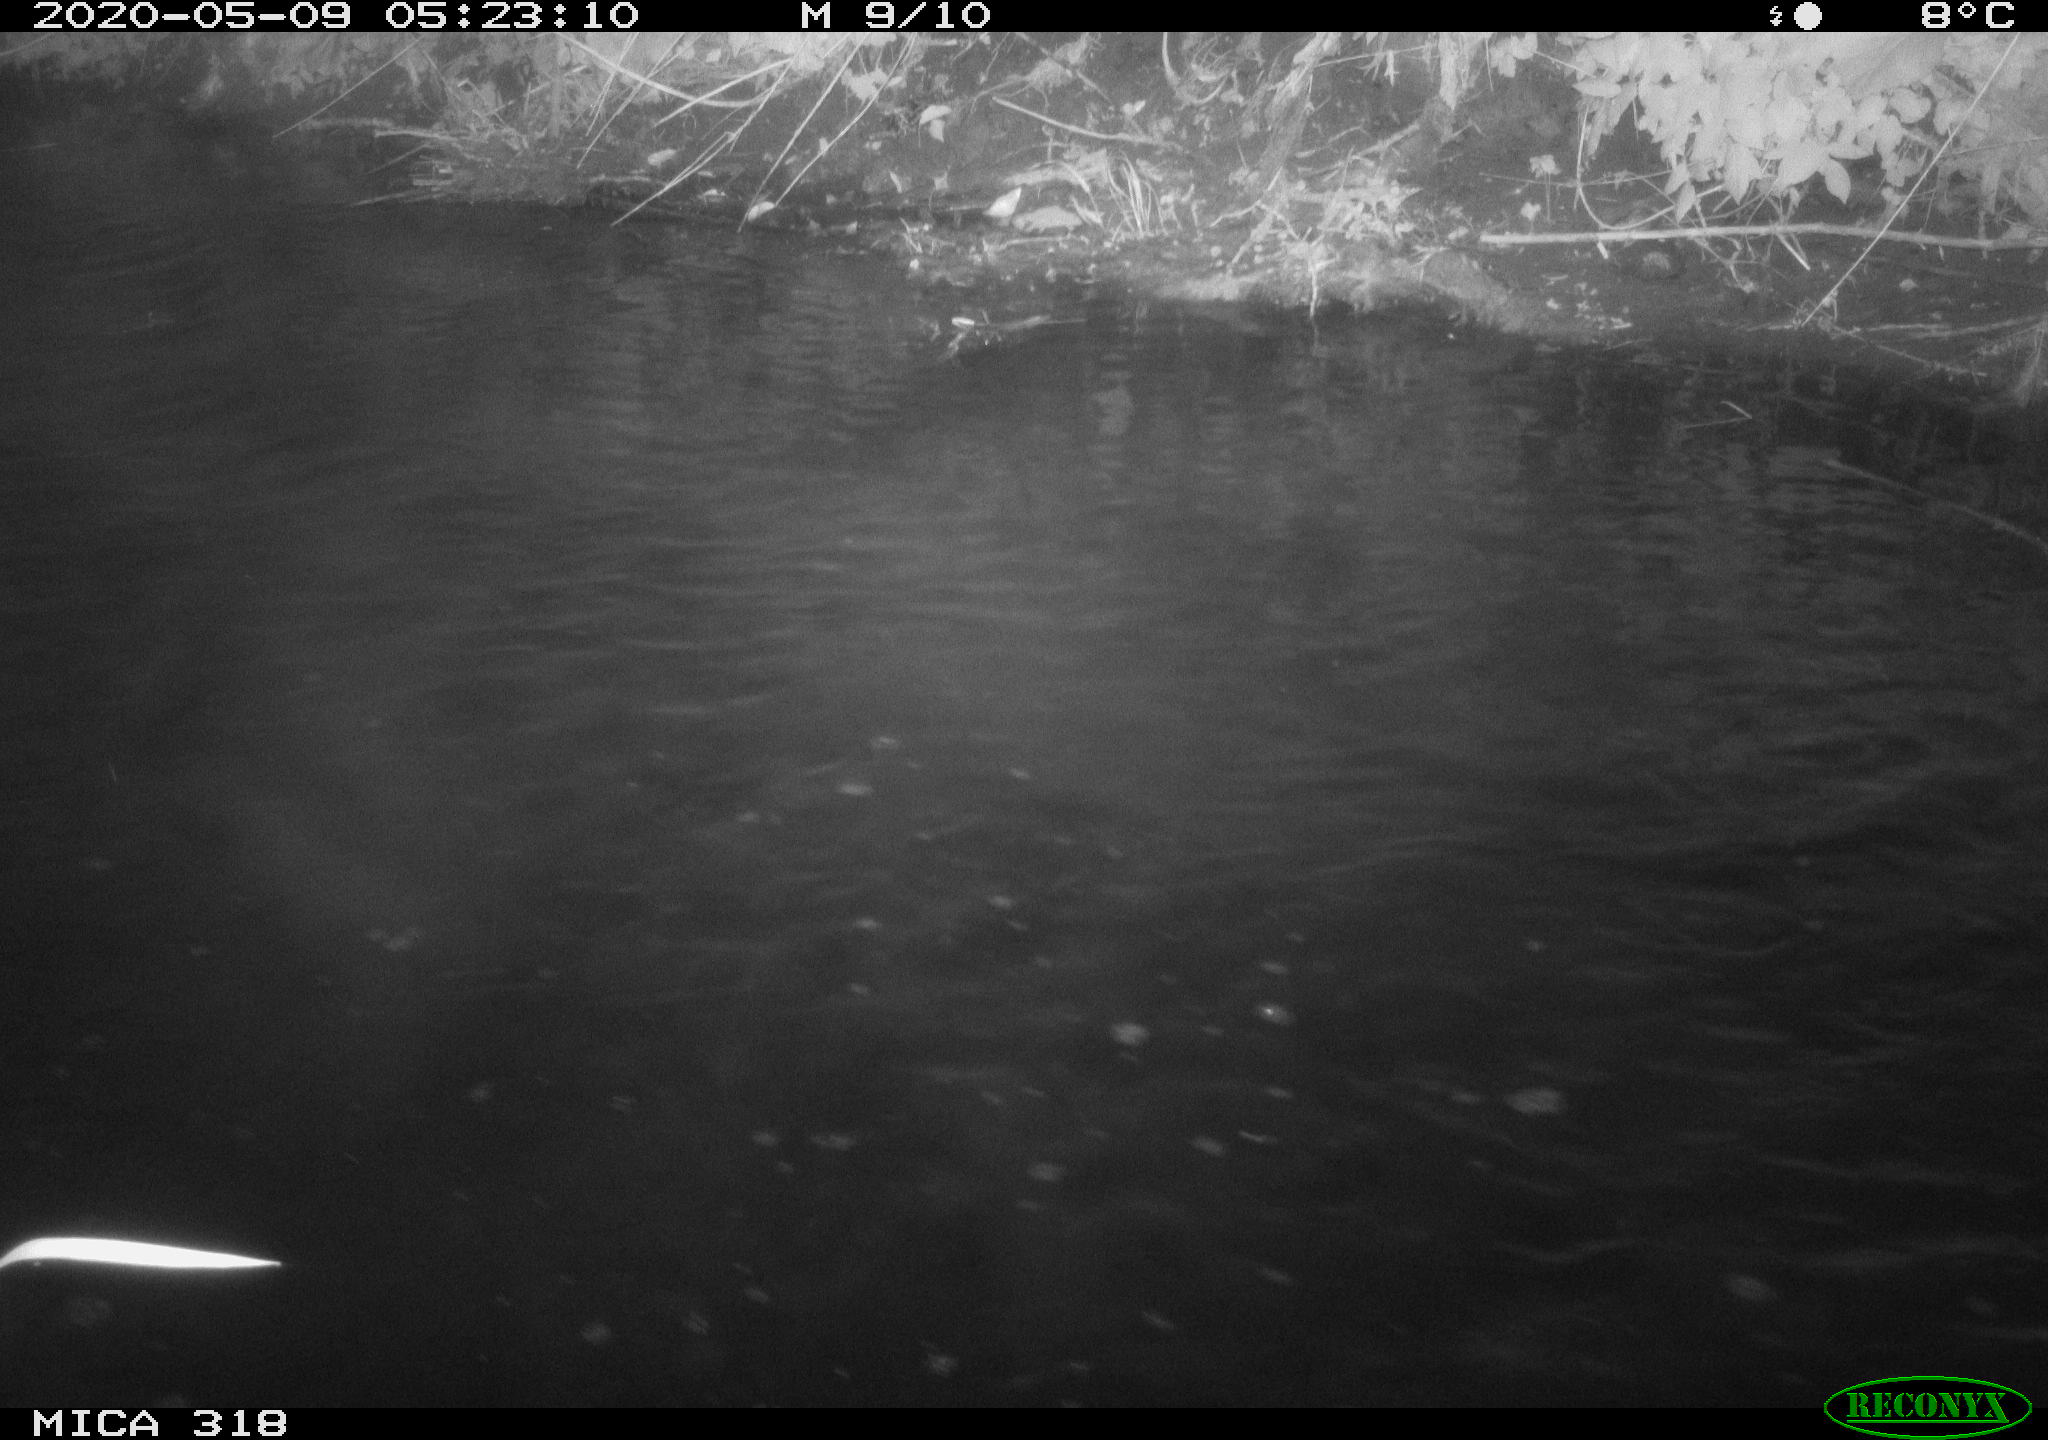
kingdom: Animalia
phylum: Chordata
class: Aves
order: Pelecaniformes
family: Ardeidae
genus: Ardea
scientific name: Ardea cinerea
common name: Grey heron
